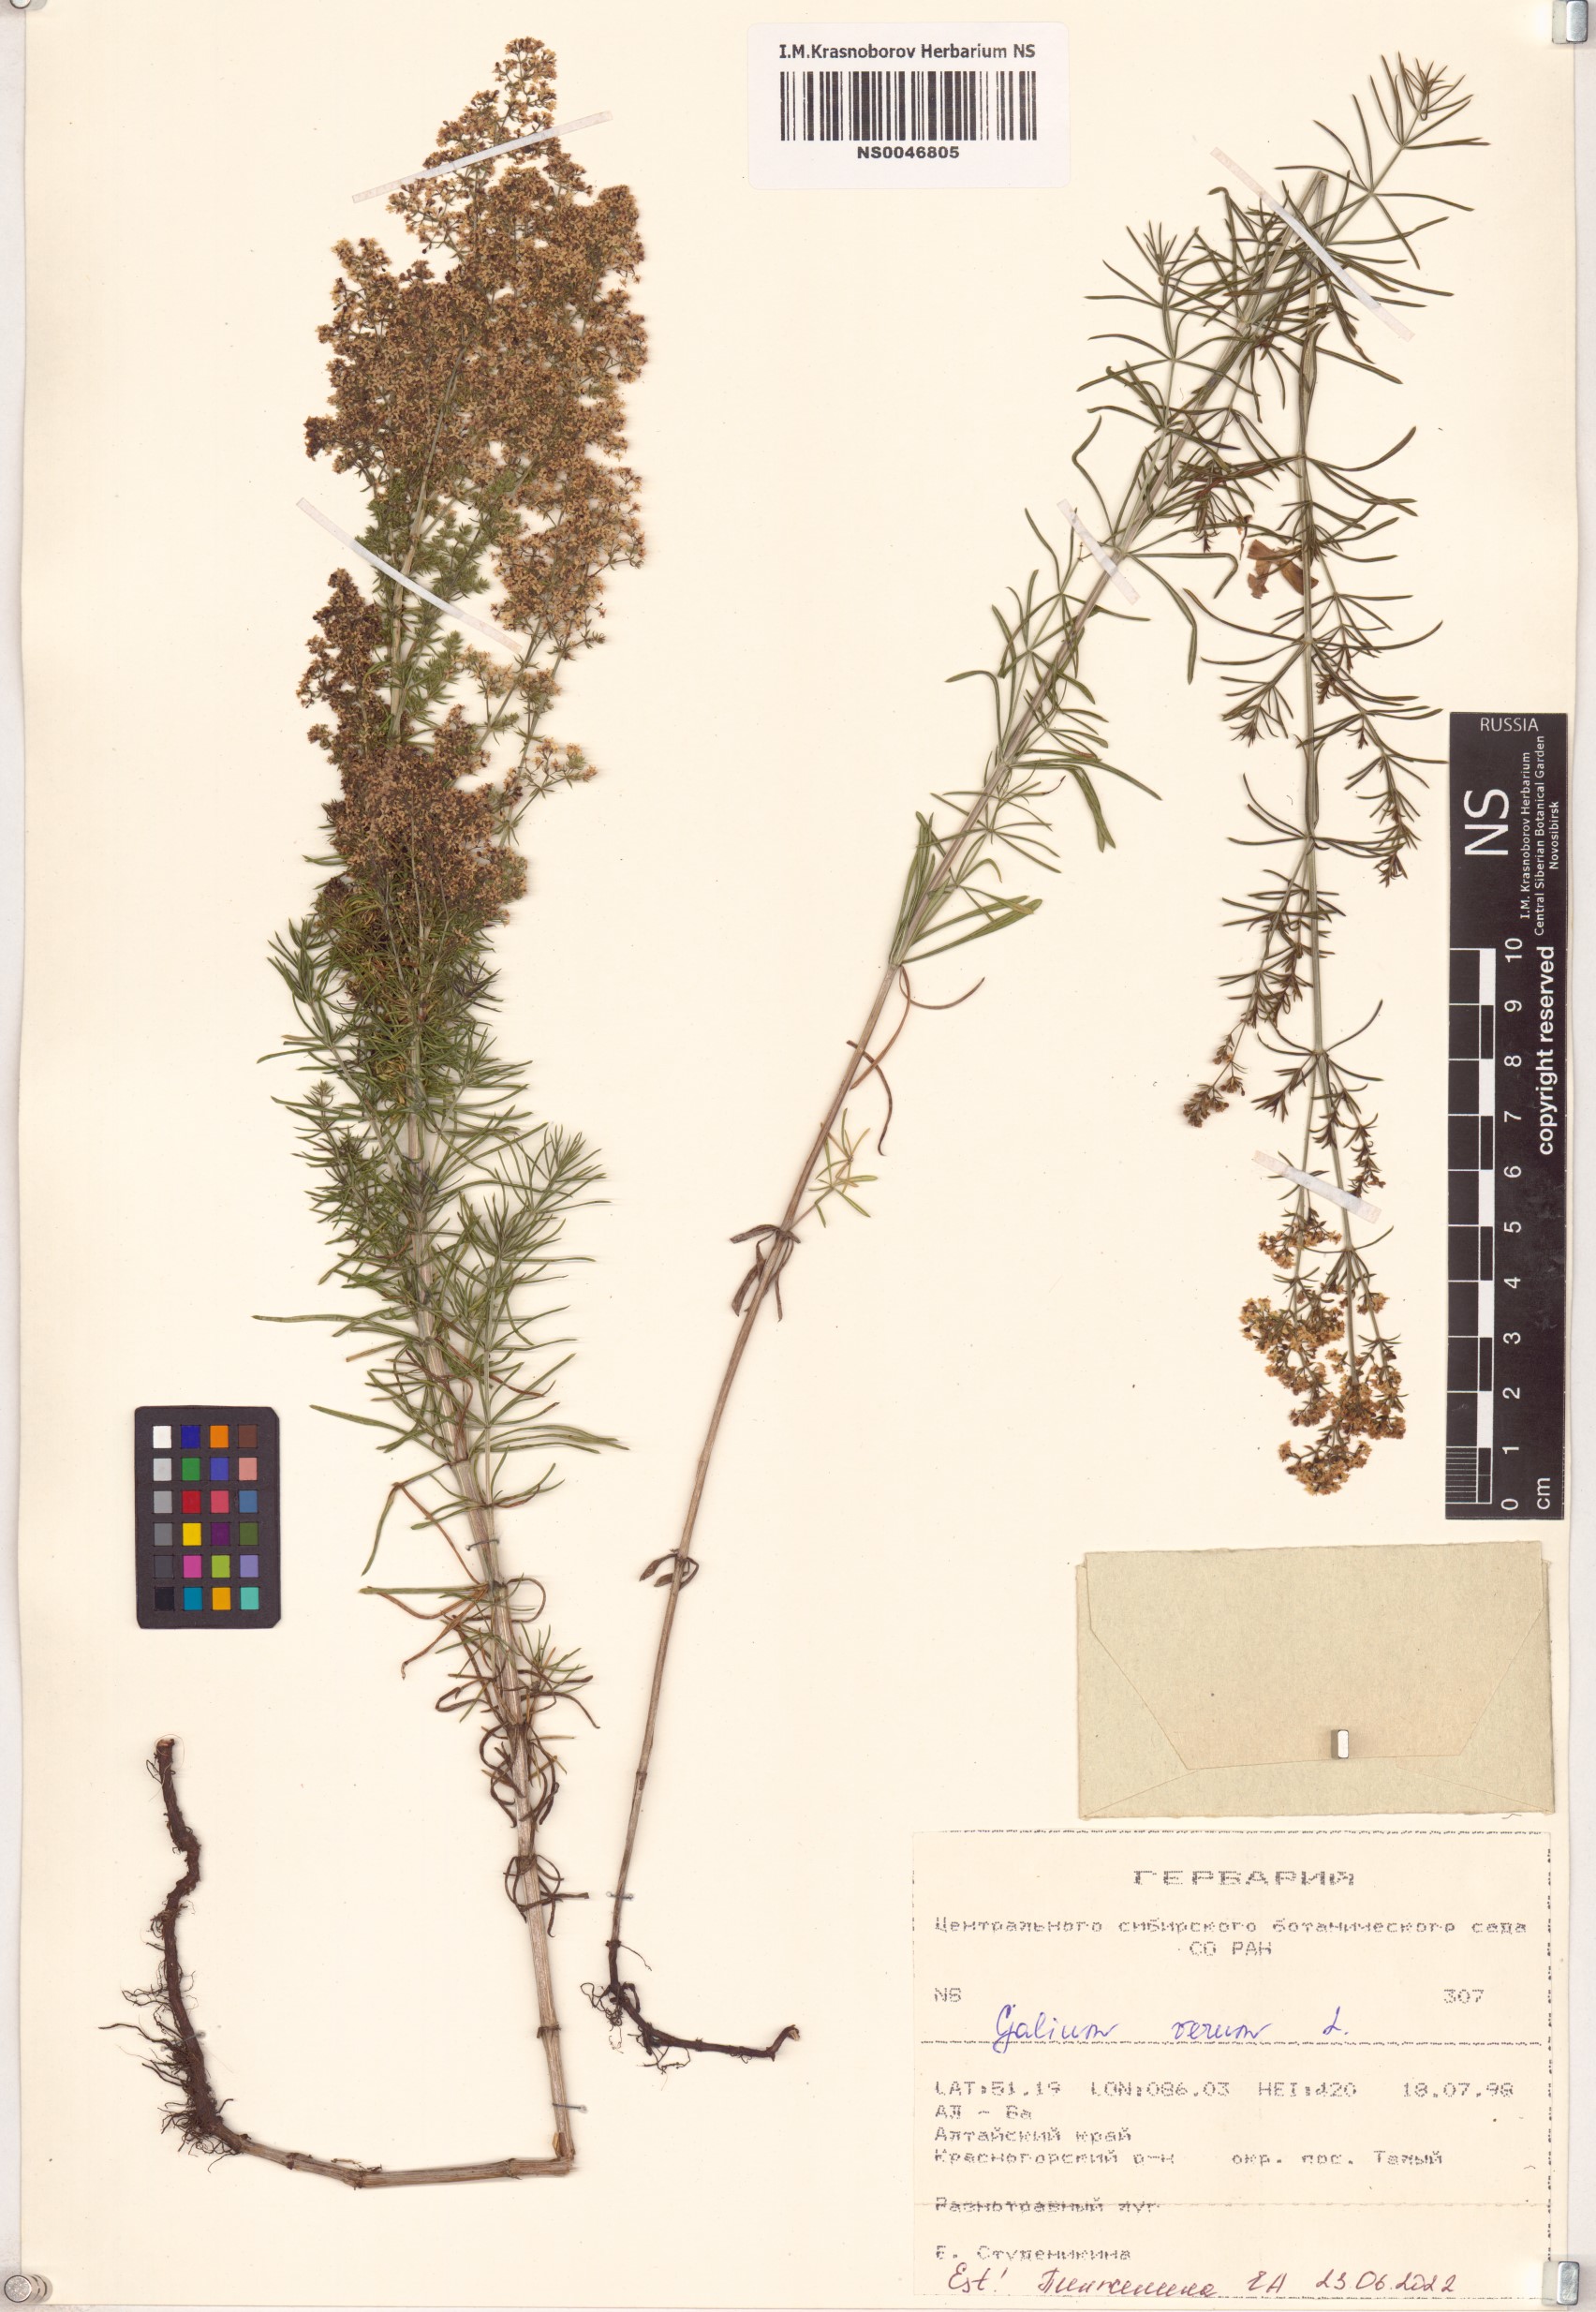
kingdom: Plantae
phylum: Tracheophyta
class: Magnoliopsida
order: Gentianales
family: Rubiaceae
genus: Galium
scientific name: Galium verum
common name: Lady's bedstraw
